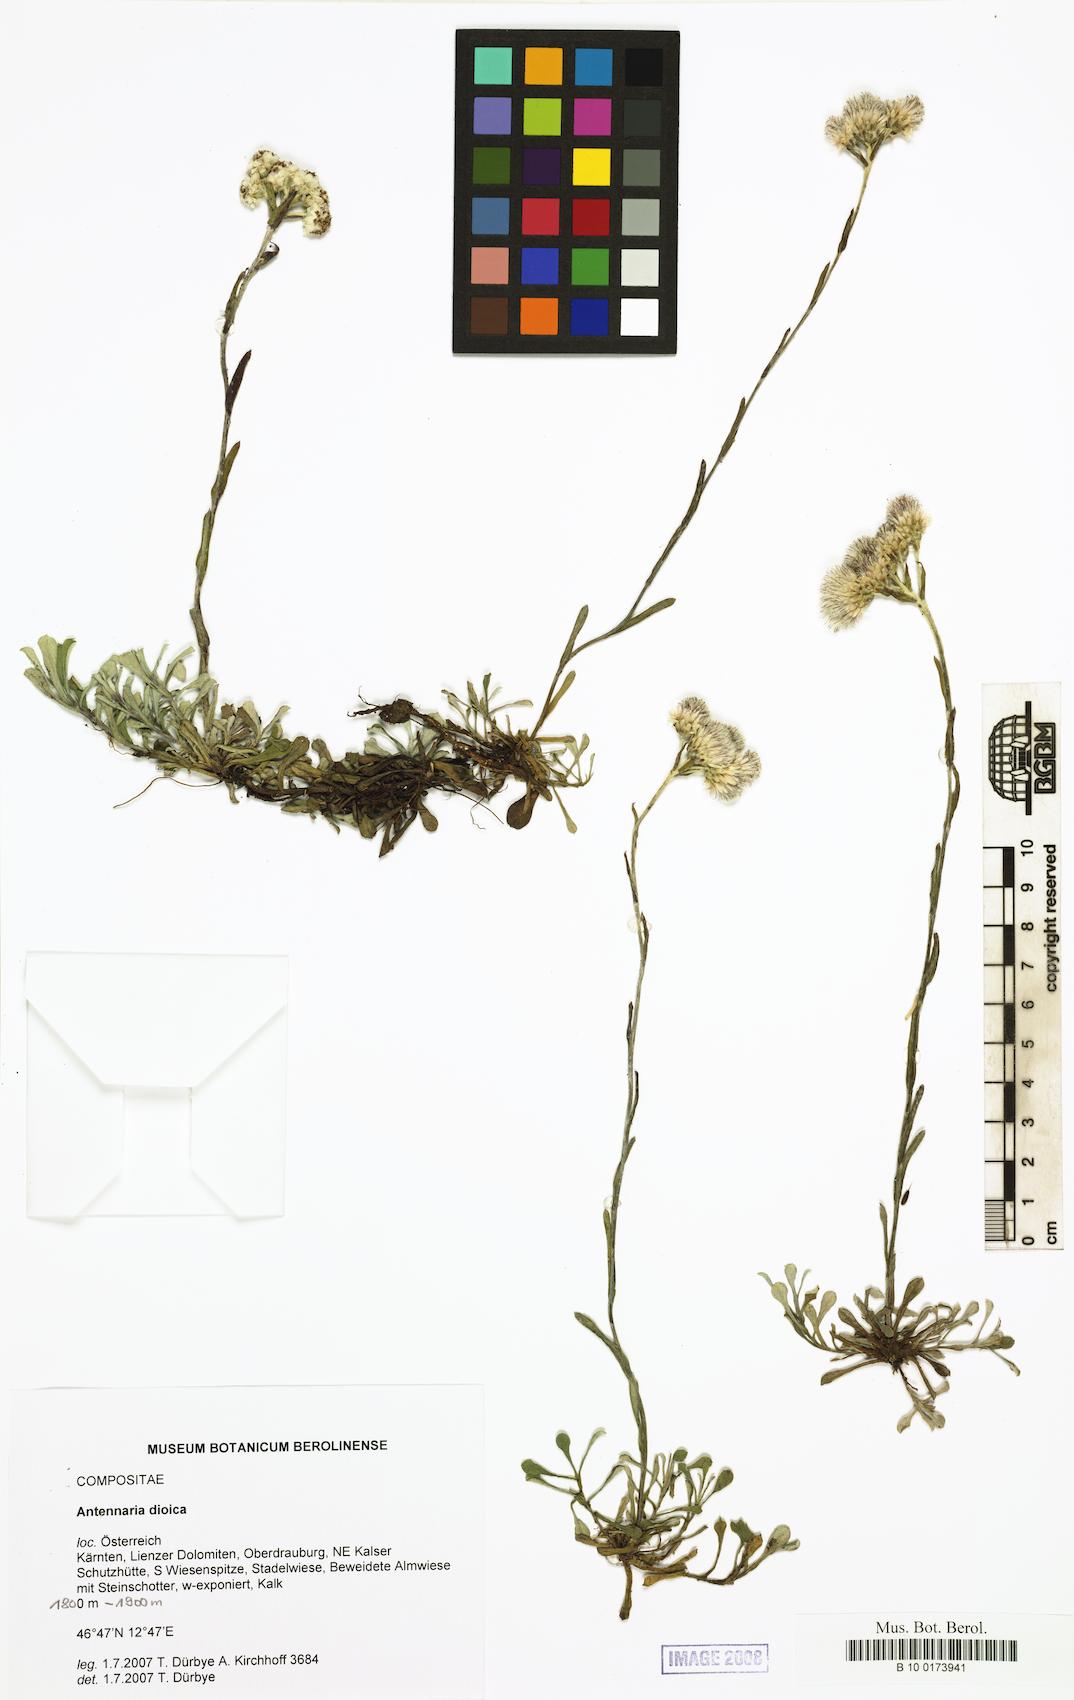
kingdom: Plantae
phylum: Tracheophyta
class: Magnoliopsida
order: Asterales
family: Asteraceae
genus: Antennaria
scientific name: Antennaria dioica
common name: Mountain everlasting
